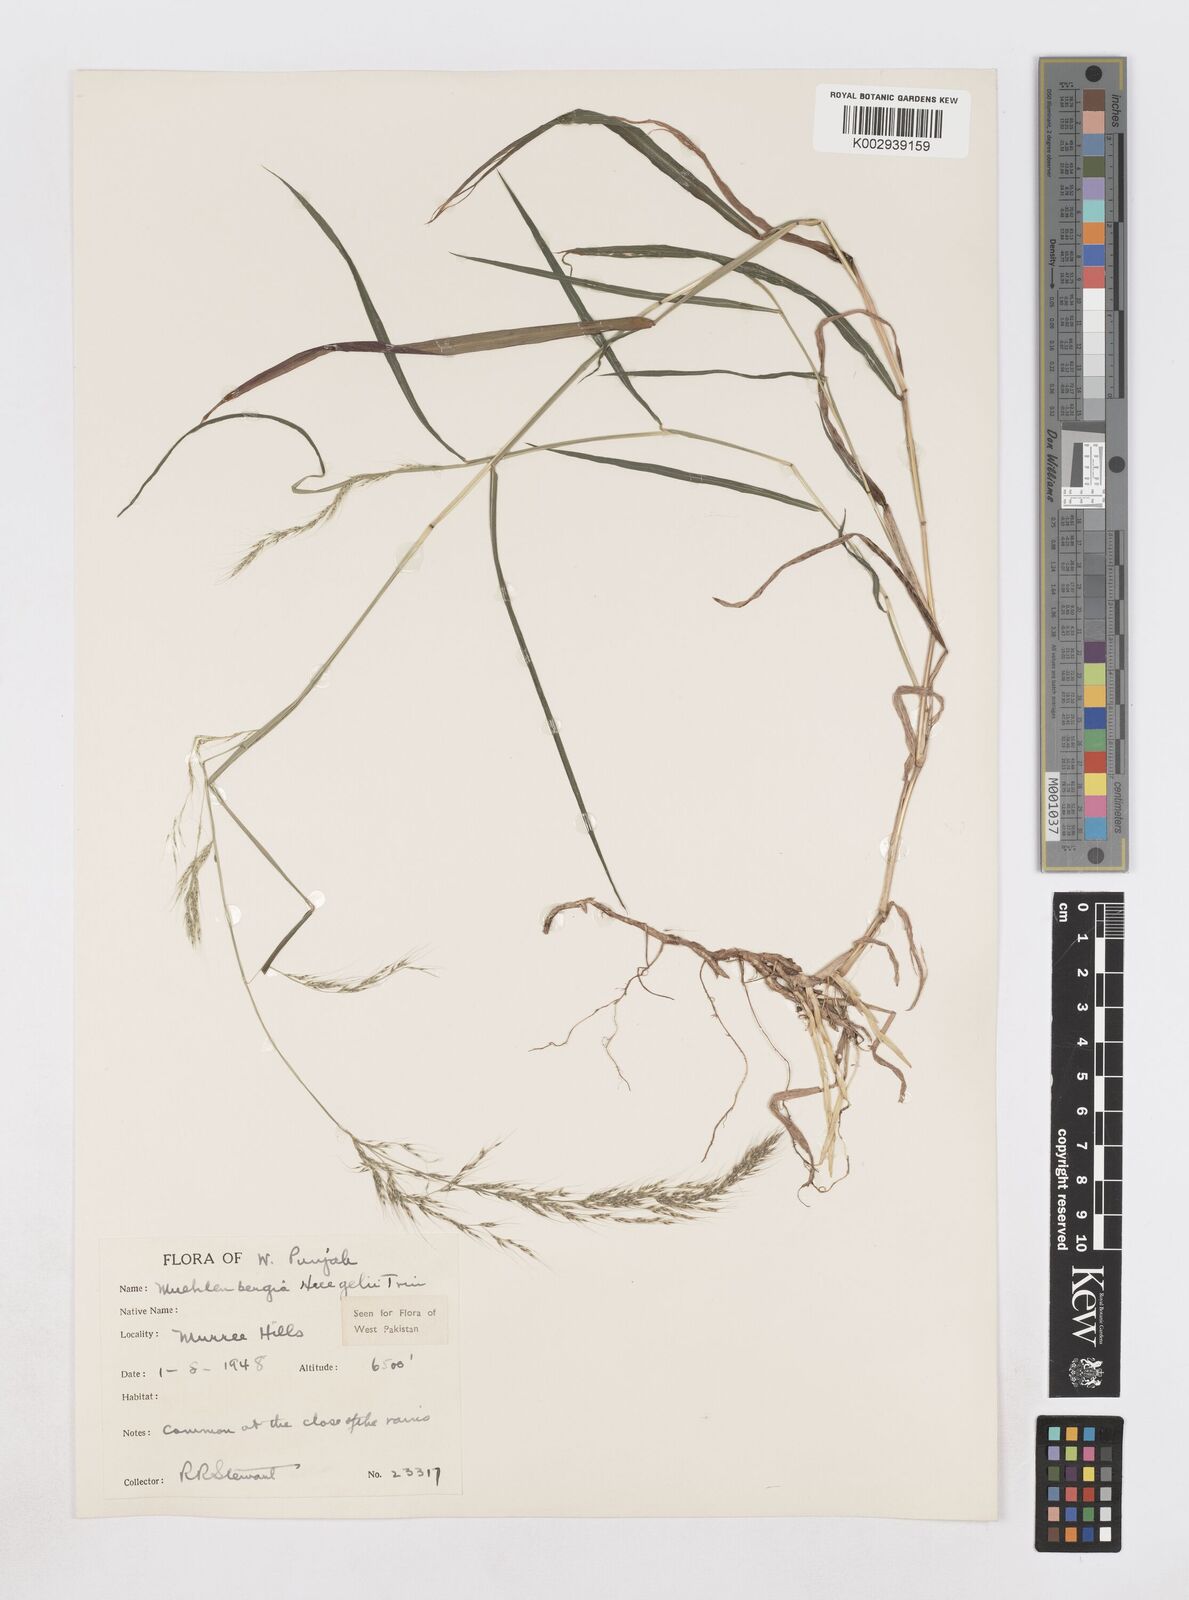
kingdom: Plantae
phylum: Tracheophyta
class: Liliopsida
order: Poales
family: Poaceae
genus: Muhlenbergia
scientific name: Muhlenbergia huegelii
